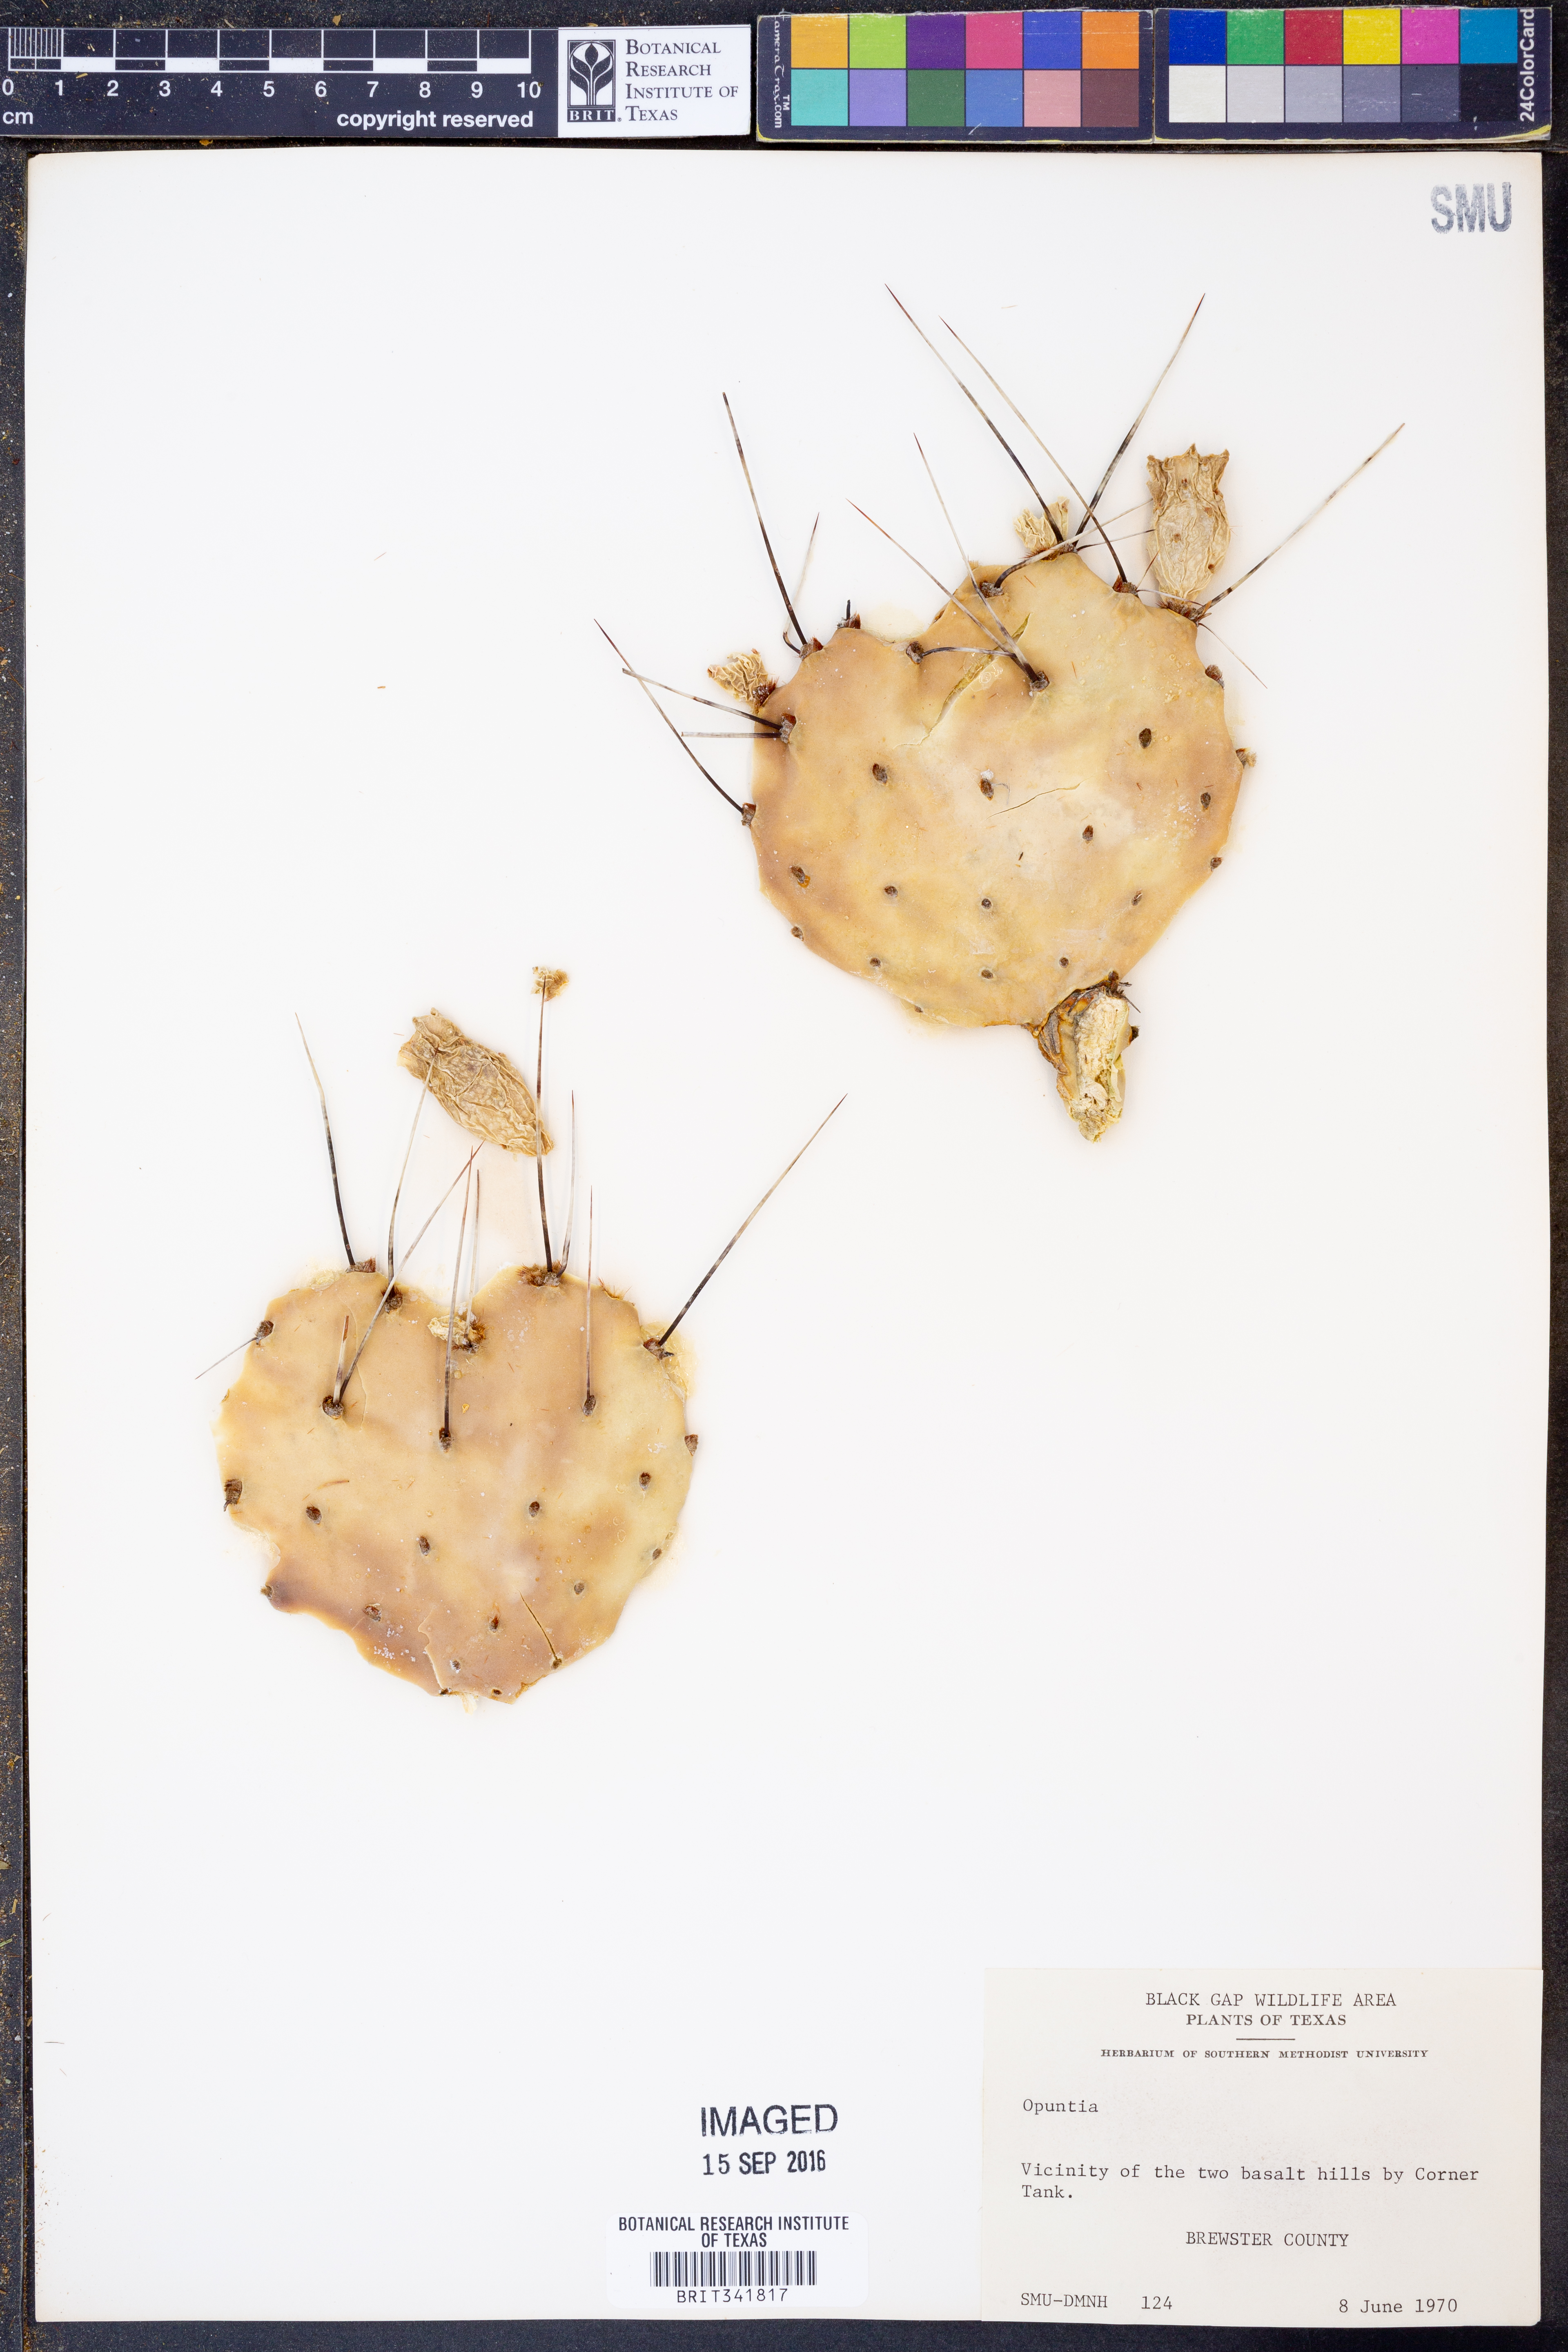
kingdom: Plantae
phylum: Tracheophyta
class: Magnoliopsida
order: Caryophyllales
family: Cactaceae
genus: Opuntia
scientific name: Opuntia
